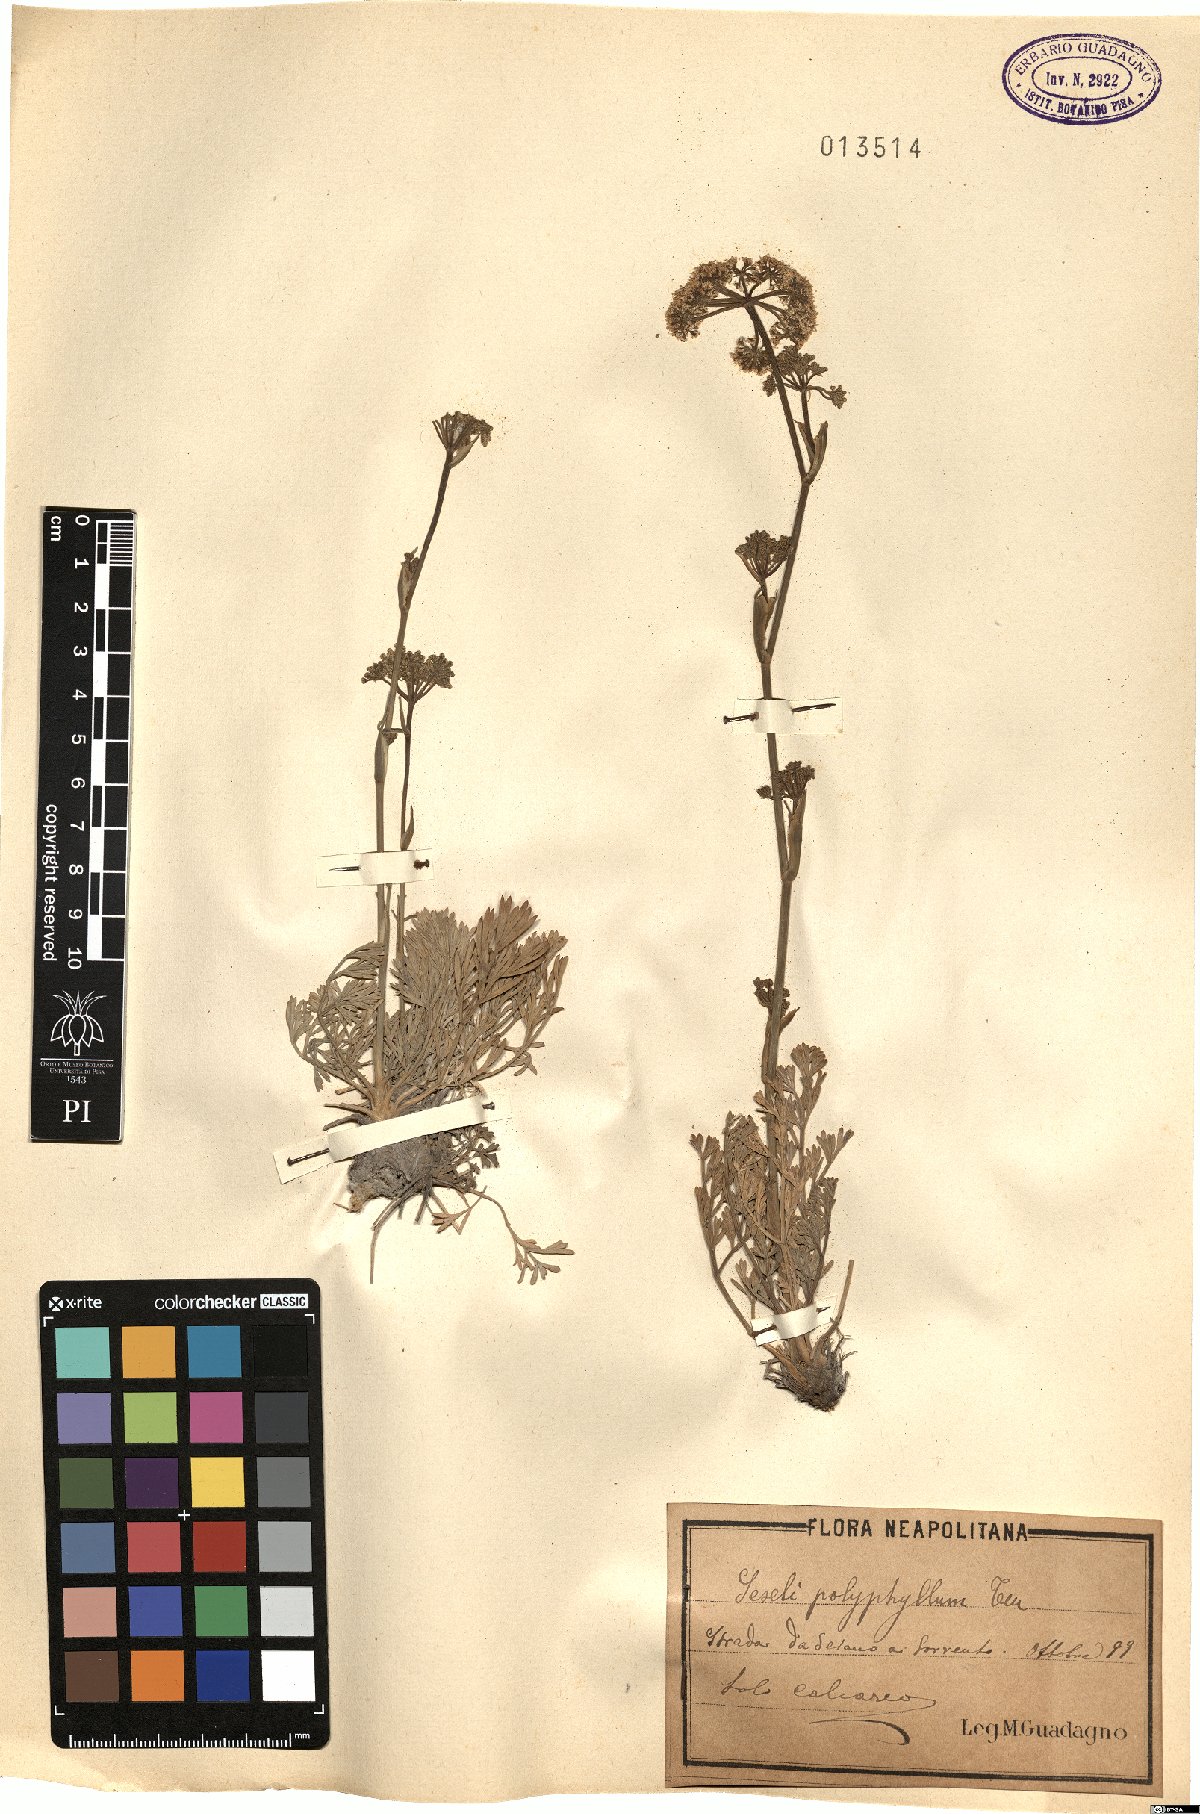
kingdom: Plantae
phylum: Tracheophyta
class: Magnoliopsida
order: Apiales
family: Apiaceae
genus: Seseli
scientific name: Seseli polyphyllum
